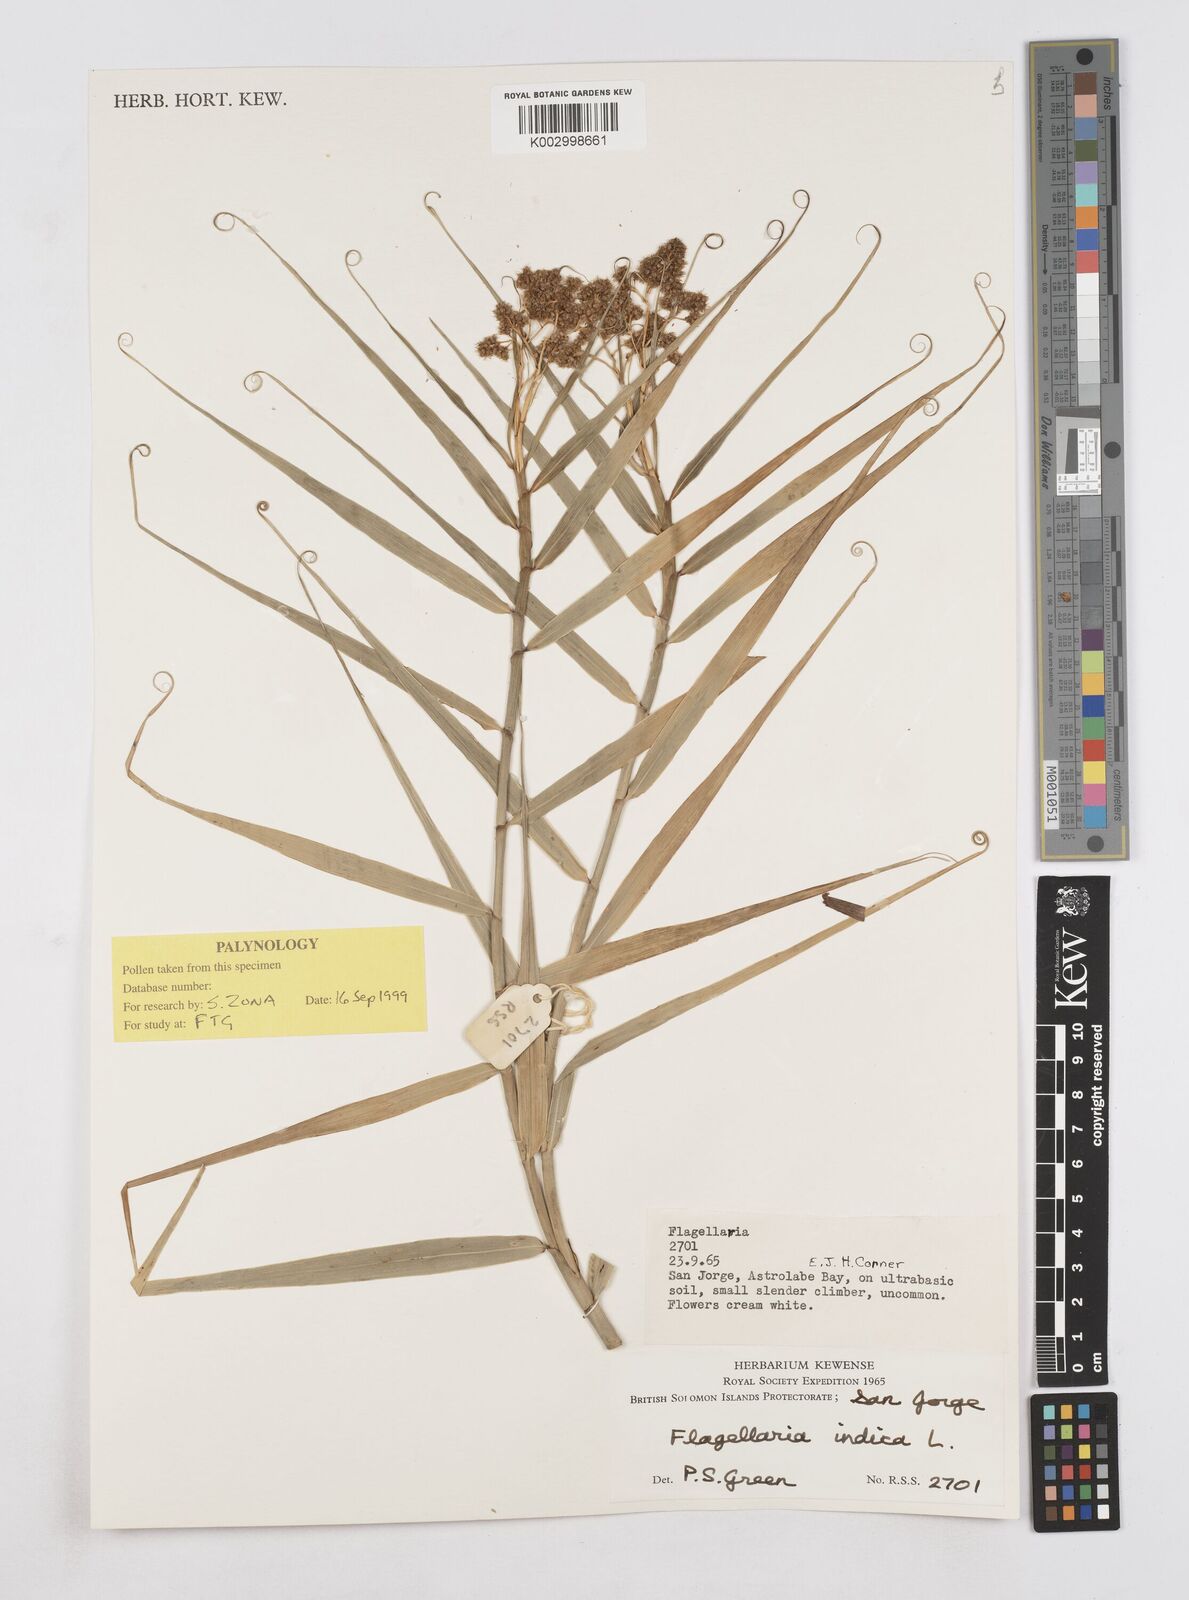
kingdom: Plantae
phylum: Tracheophyta
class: Liliopsida
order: Poales
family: Flagellariaceae
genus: Flagellaria
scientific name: Flagellaria indica
